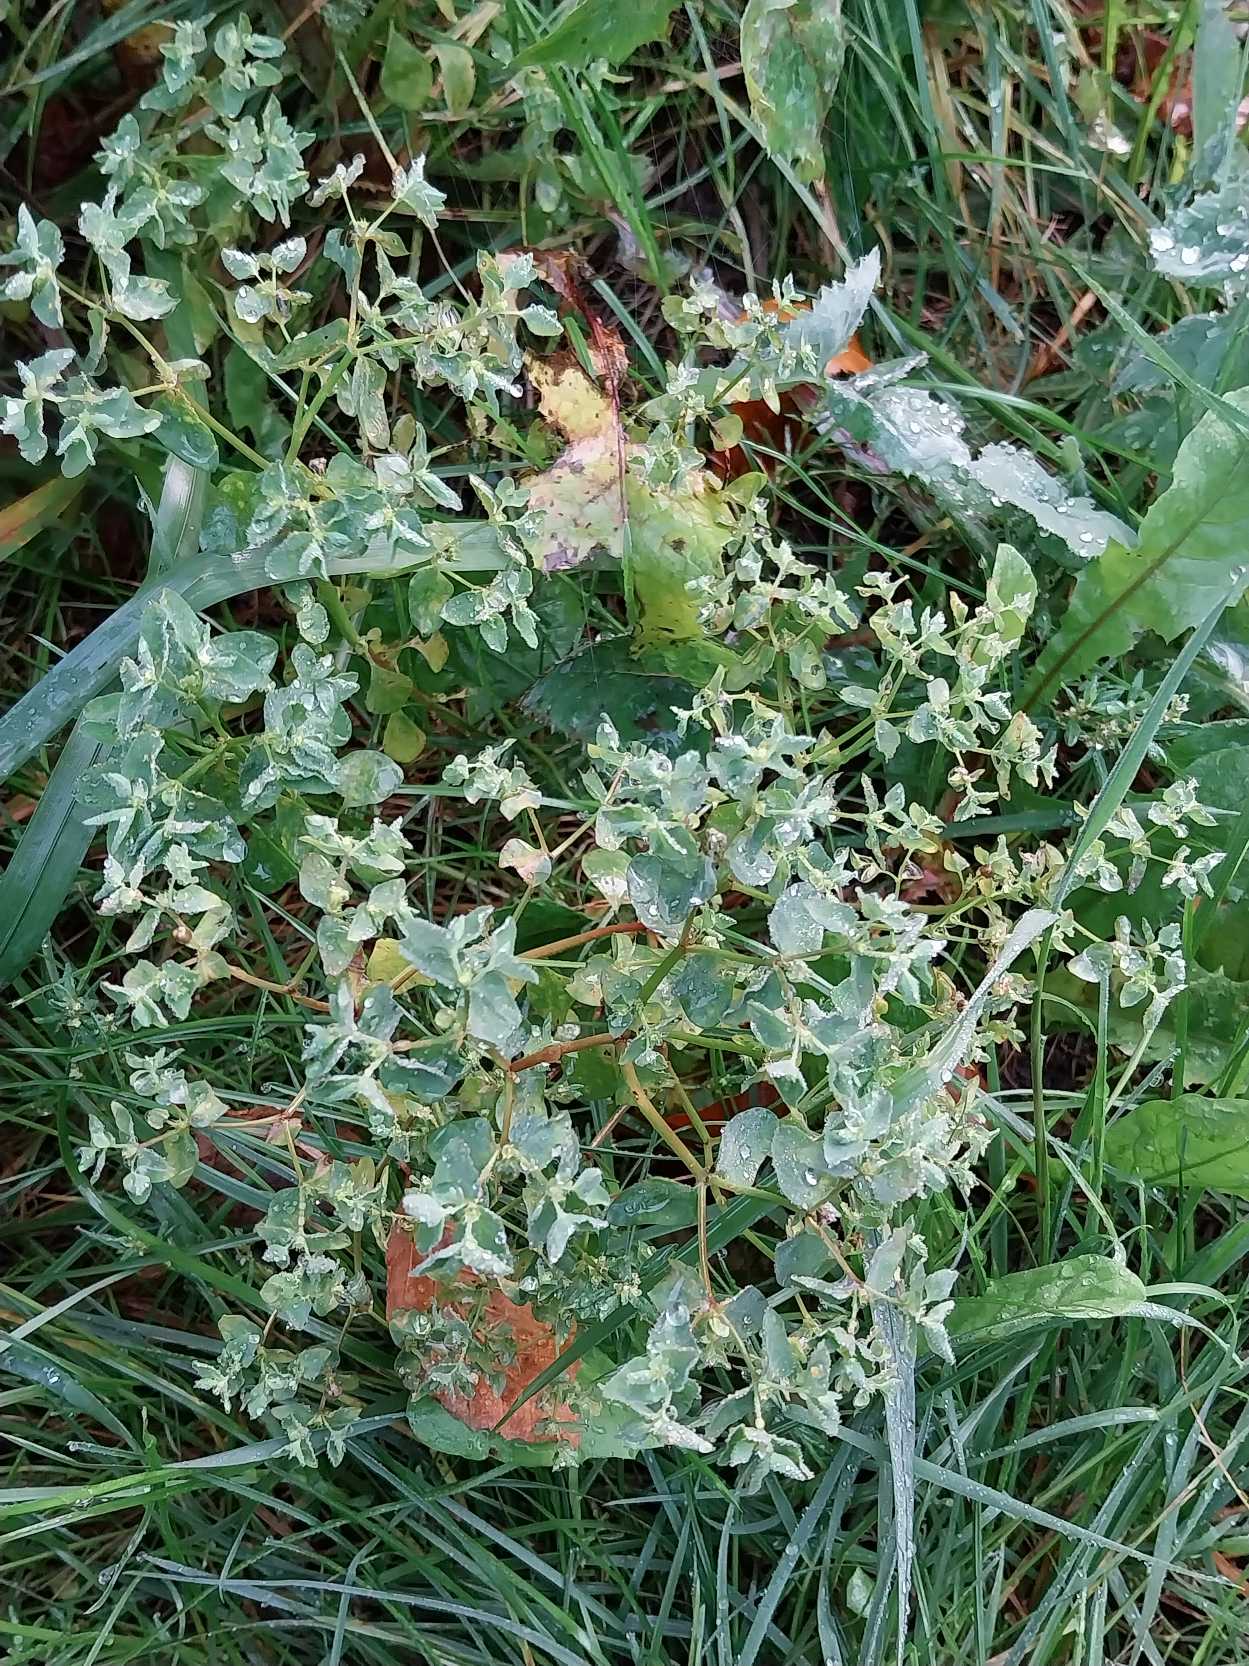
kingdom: Plantae
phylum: Tracheophyta
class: Magnoliopsida
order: Malpighiales
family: Euphorbiaceae
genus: Euphorbia
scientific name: Euphorbia peplus
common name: Gaffel-vortemælk
